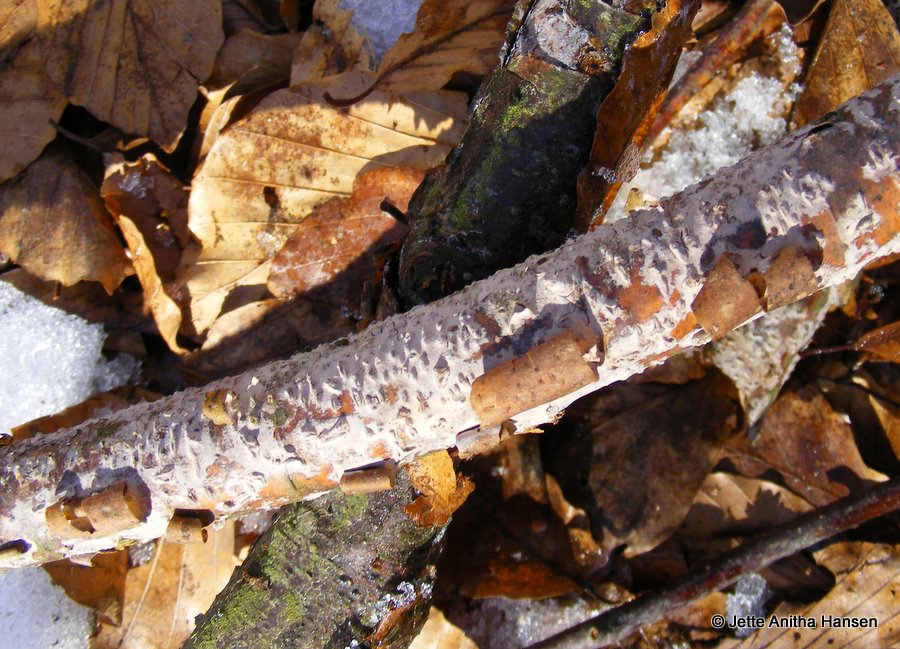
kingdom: Fungi
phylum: Basidiomycota
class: Agaricomycetes
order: Russulales
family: Peniophoraceae
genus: Peniophora
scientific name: Peniophora lycii
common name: grynet voksskind
